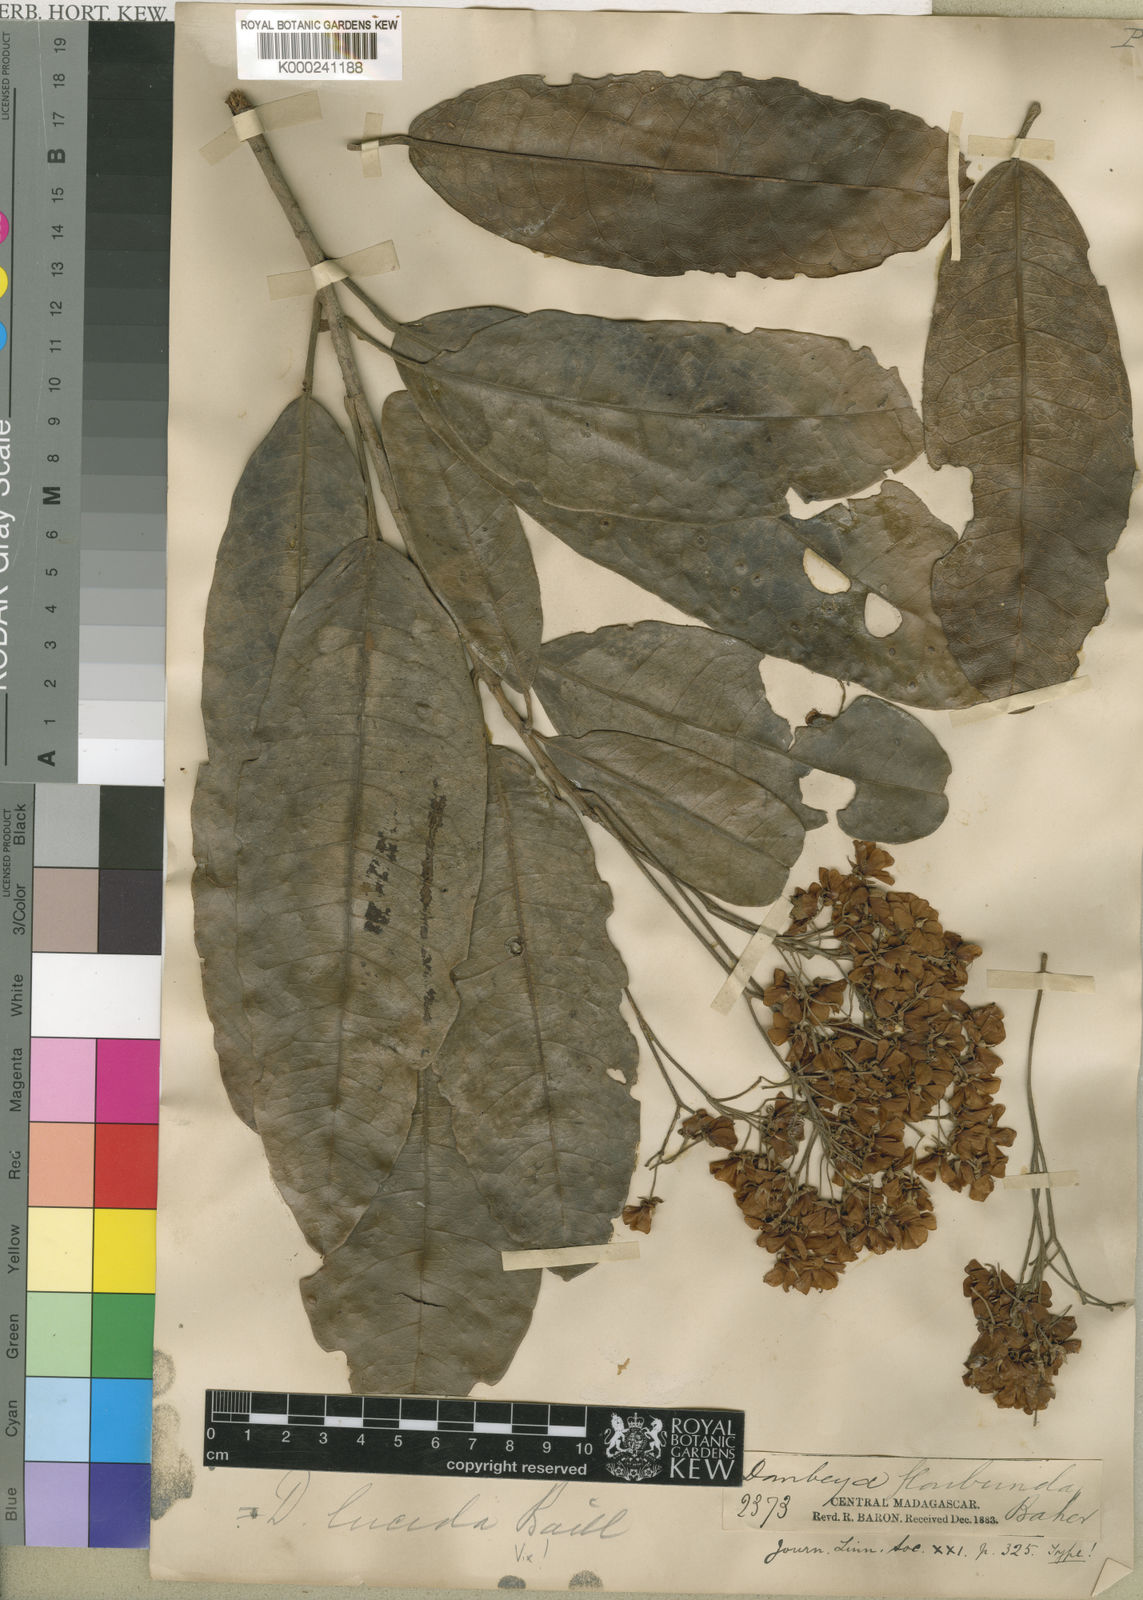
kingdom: Plantae
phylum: Tracheophyta
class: Magnoliopsida
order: Malvales
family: Malvaceae
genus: Dombeya
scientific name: Dombeya floribunda
